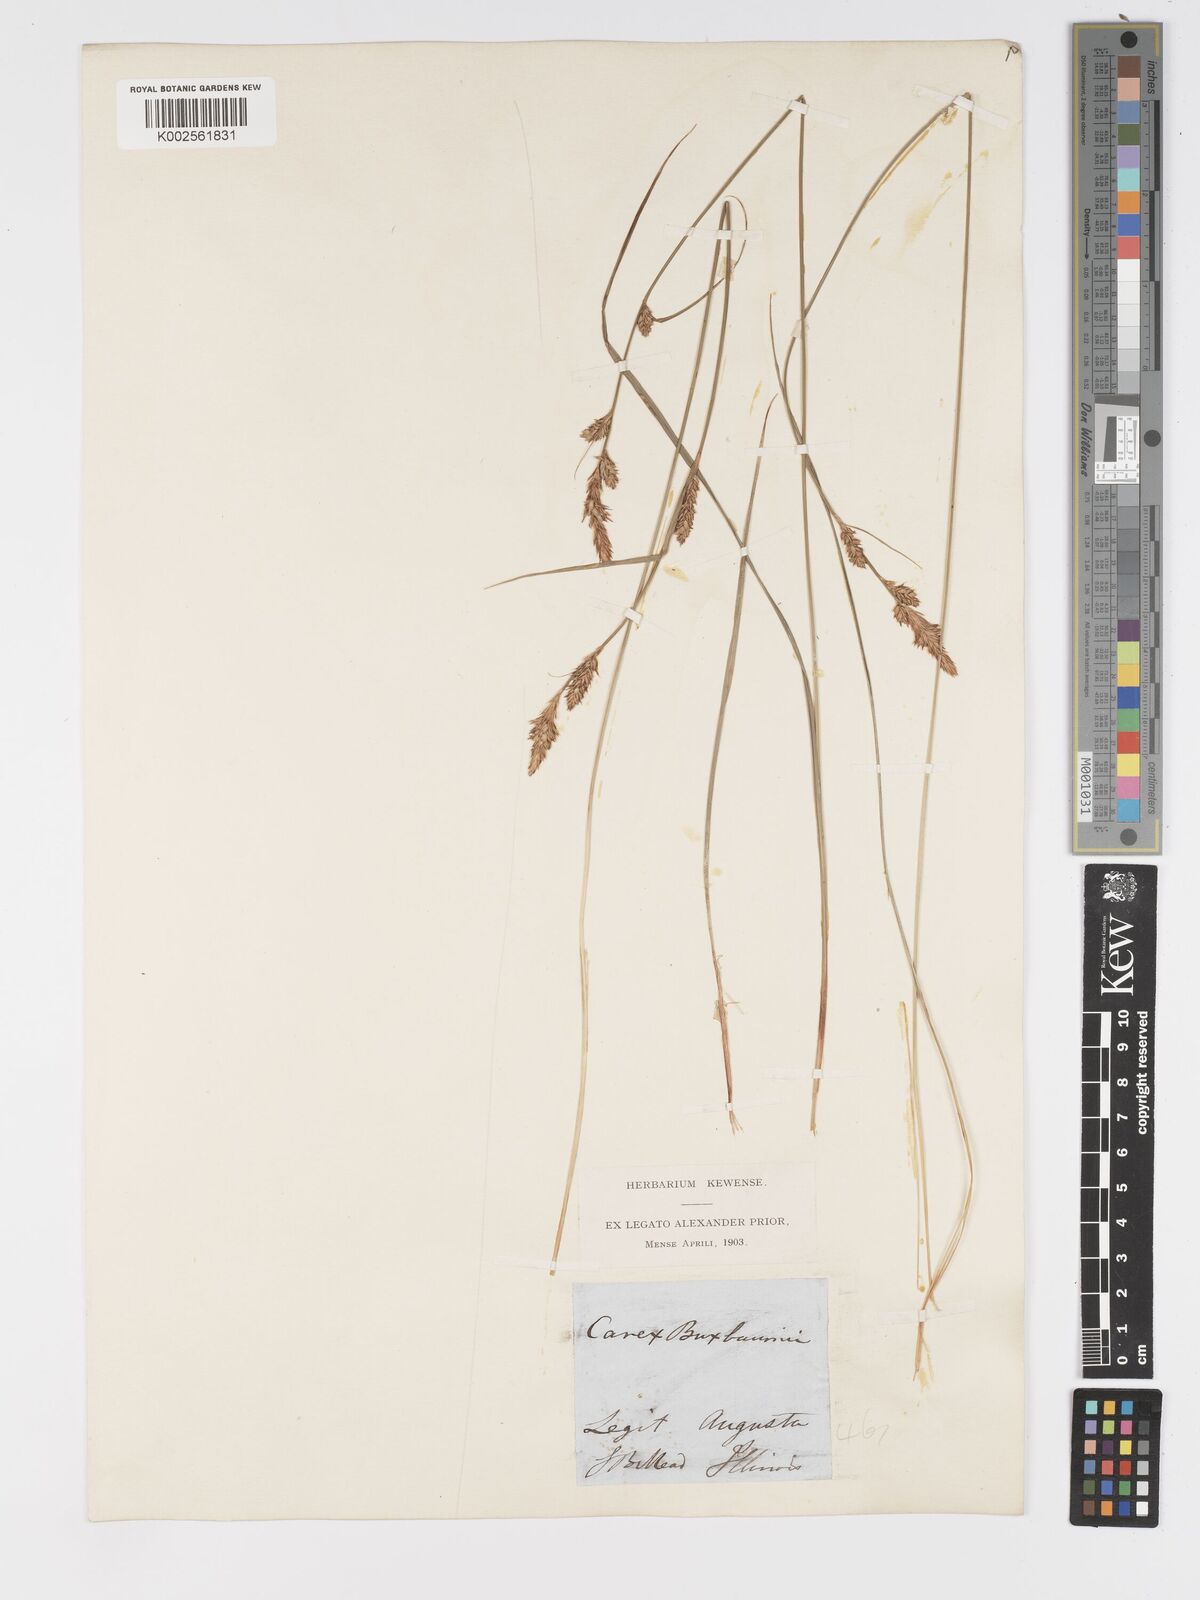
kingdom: Plantae
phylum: Tracheophyta
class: Liliopsida
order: Poales
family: Cyperaceae
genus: Carex
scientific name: Carex buxbaumii
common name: Club sedge
